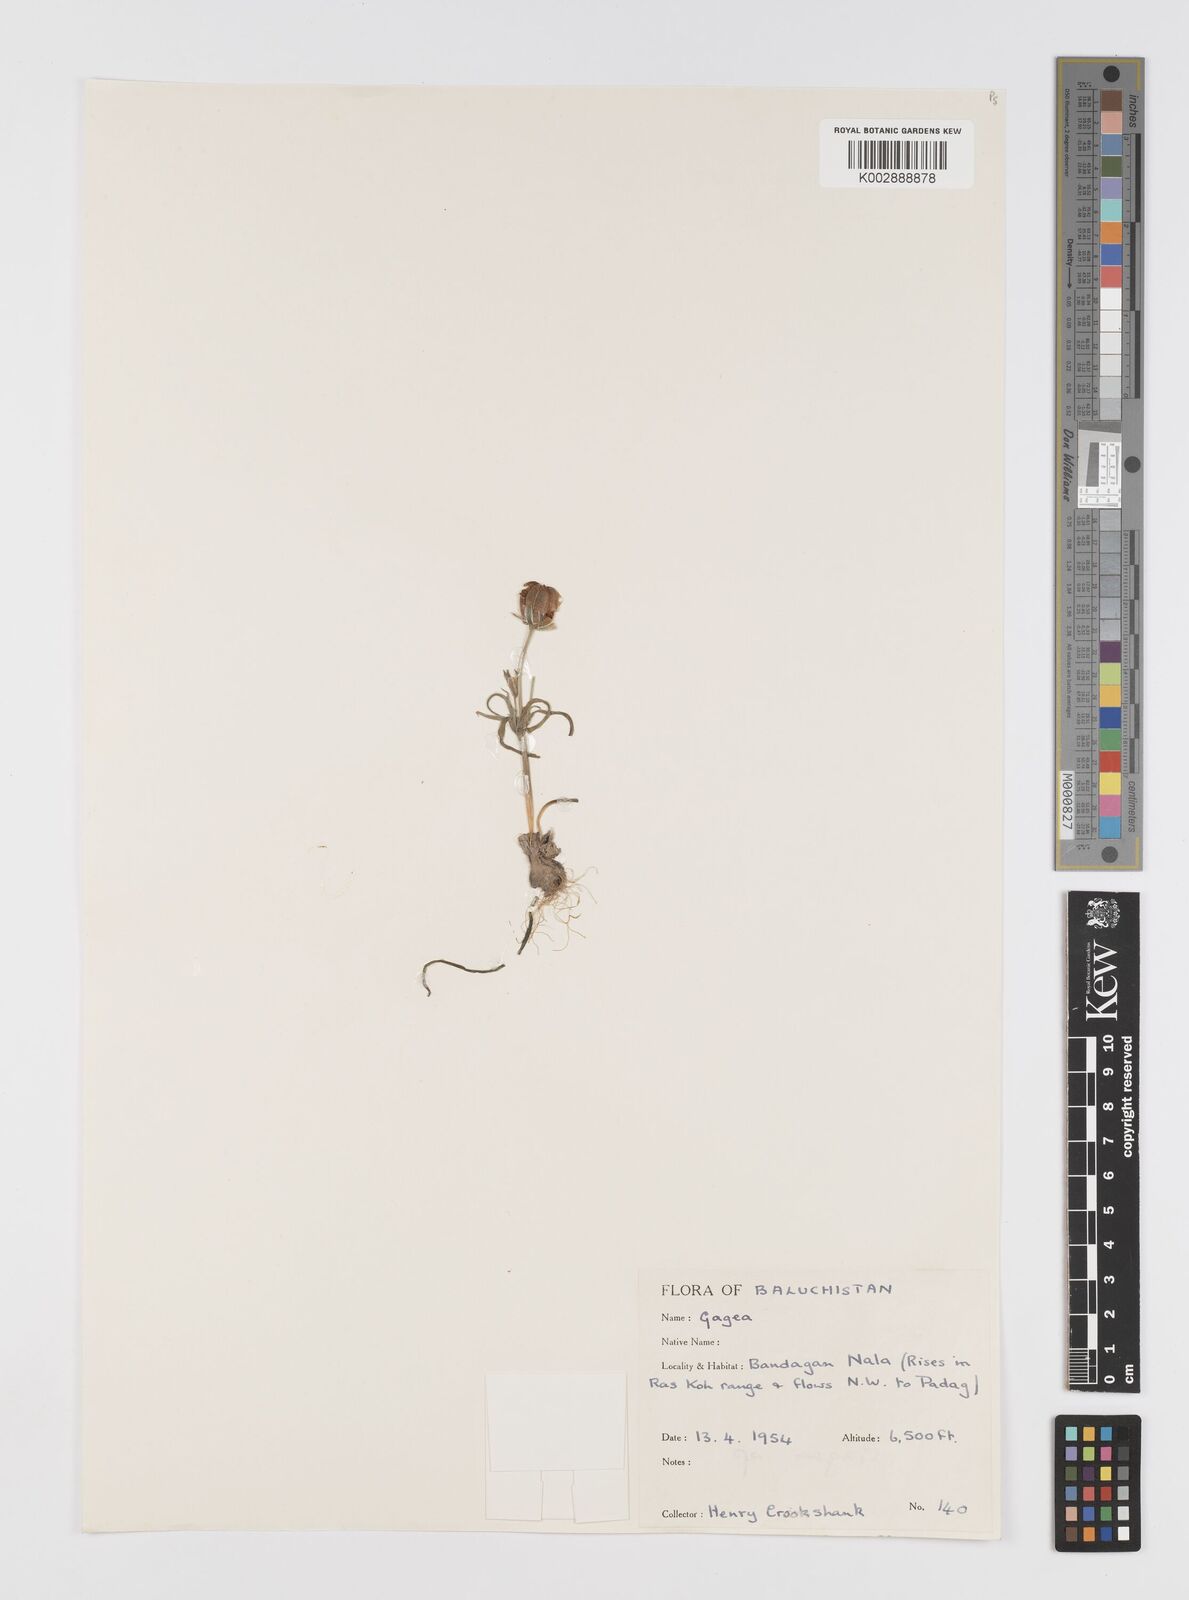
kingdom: Plantae
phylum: Tracheophyta
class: Liliopsida
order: Liliales
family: Liliaceae
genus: Gagea
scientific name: Gagea
